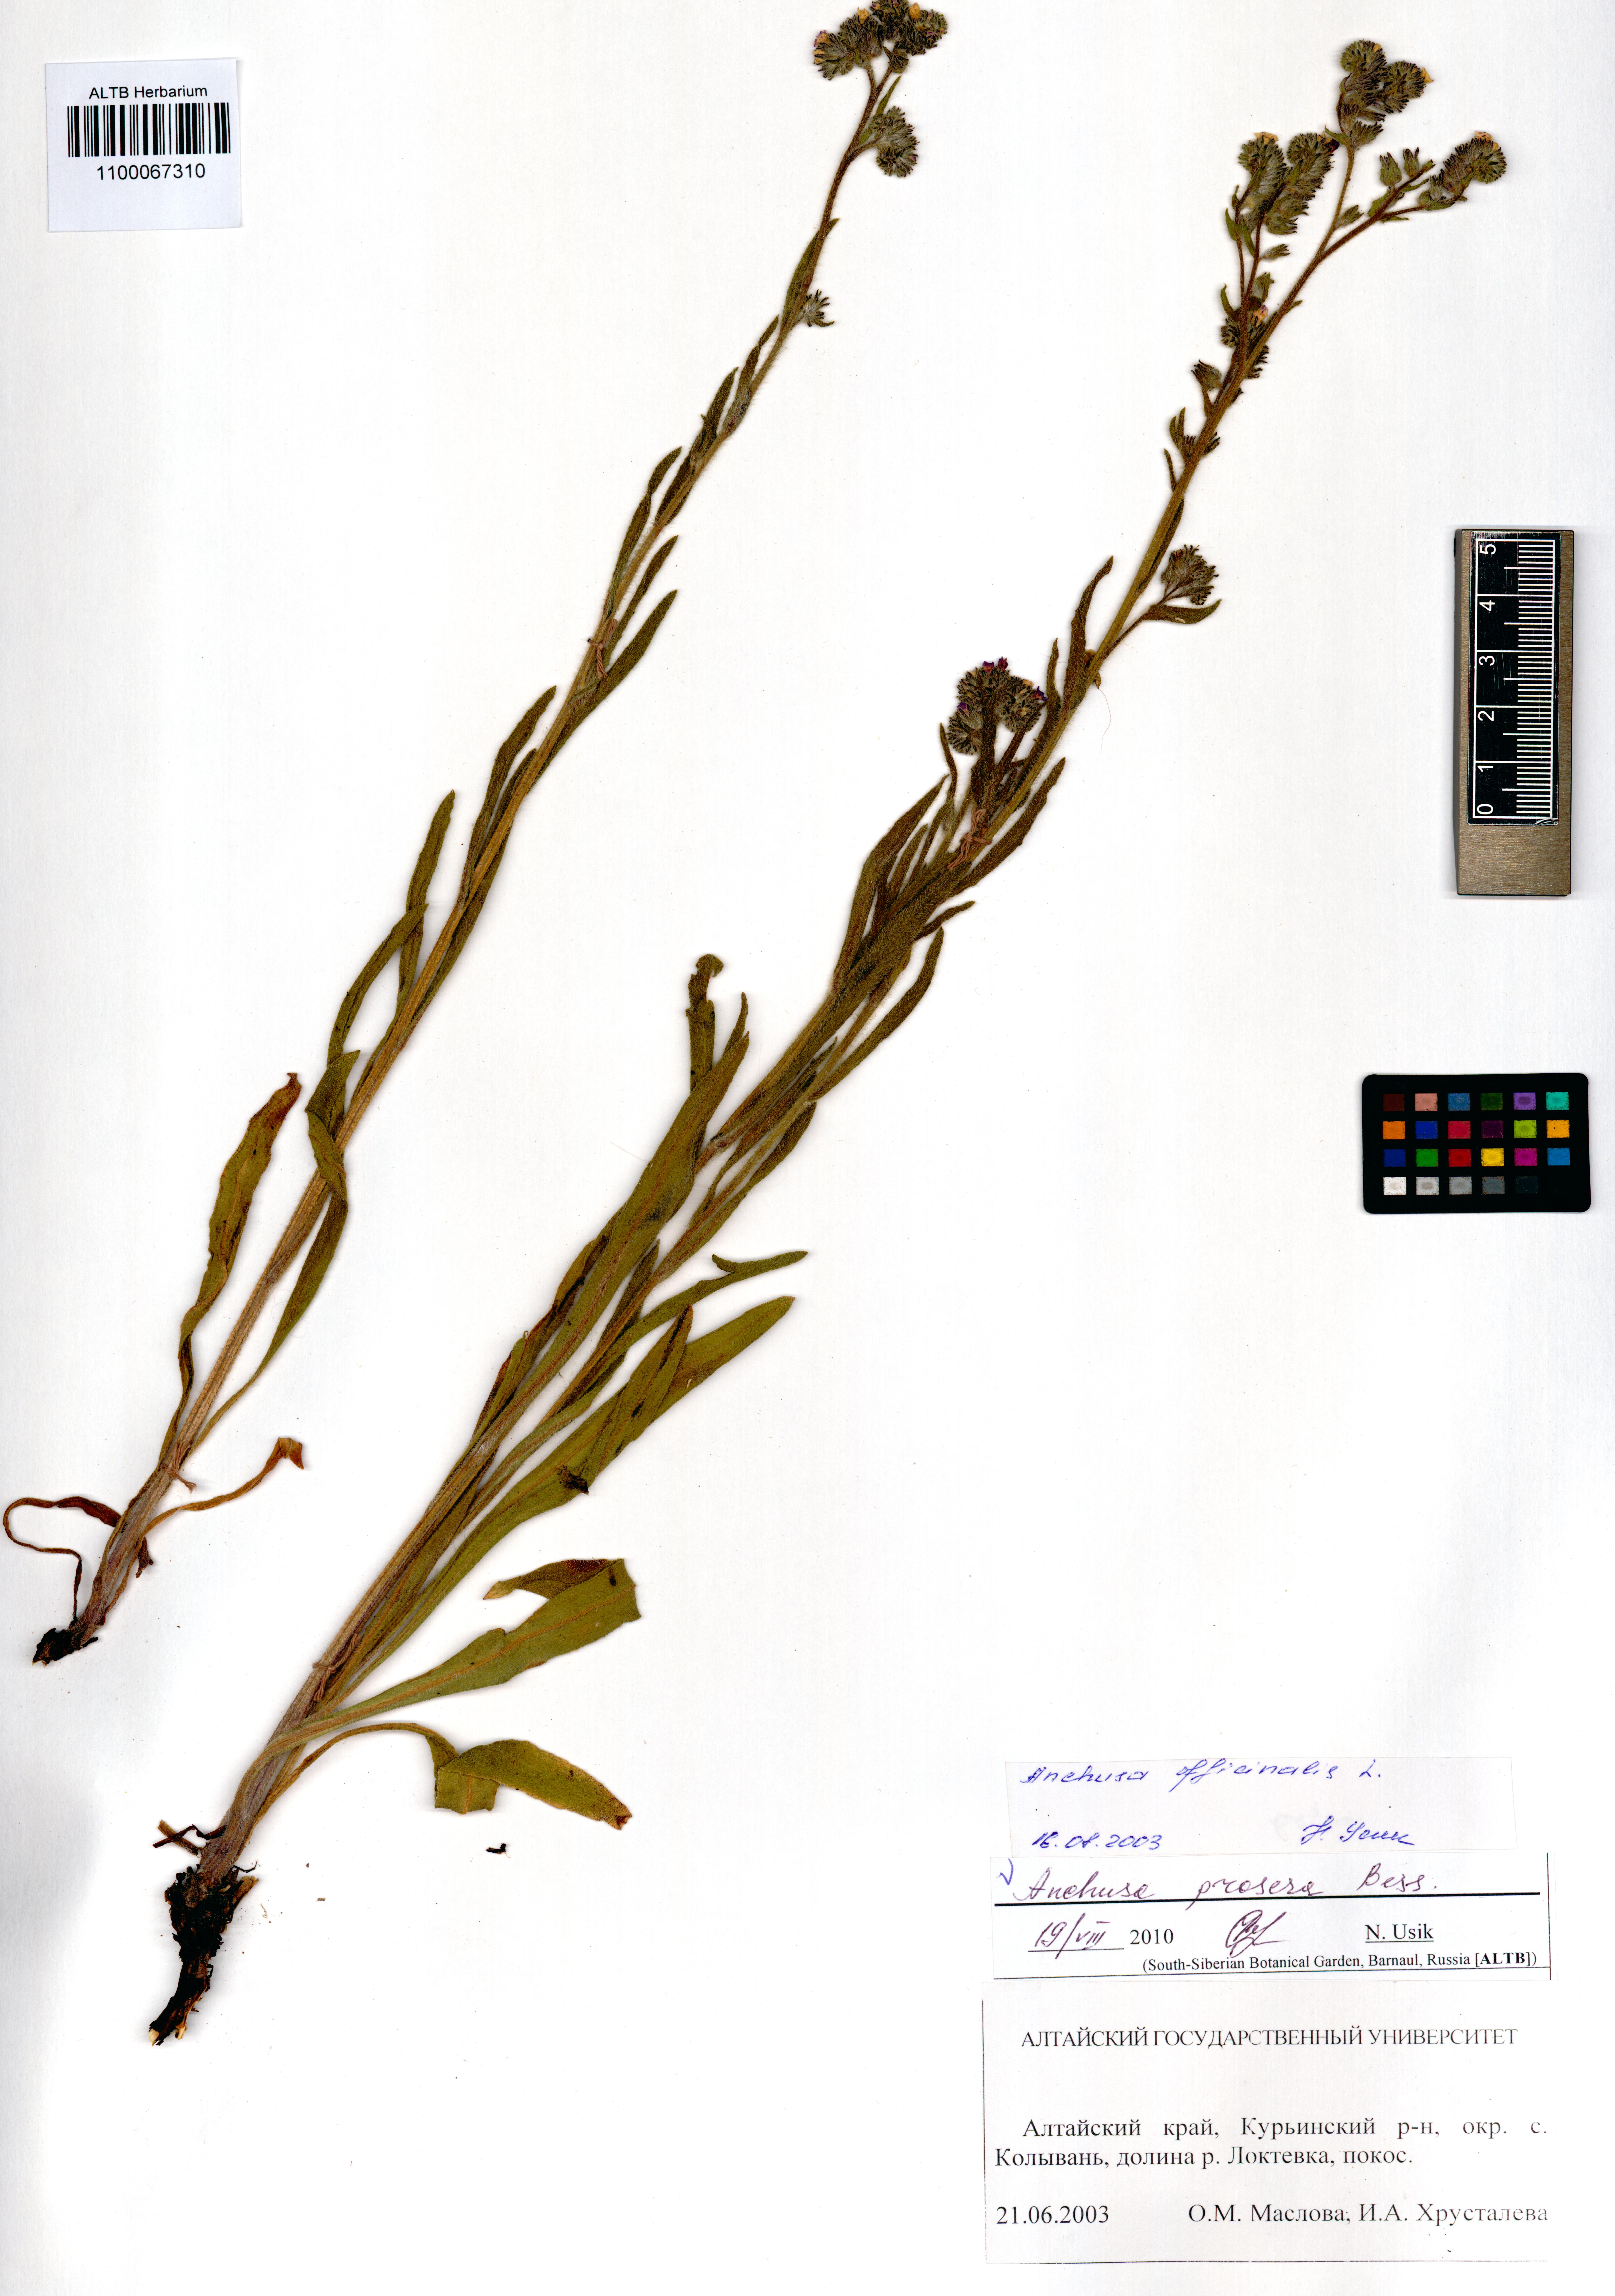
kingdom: Plantae
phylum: Tracheophyta
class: Magnoliopsida
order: Boraginales
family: Boraginaceae
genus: Anchusa
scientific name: Anchusa procera
